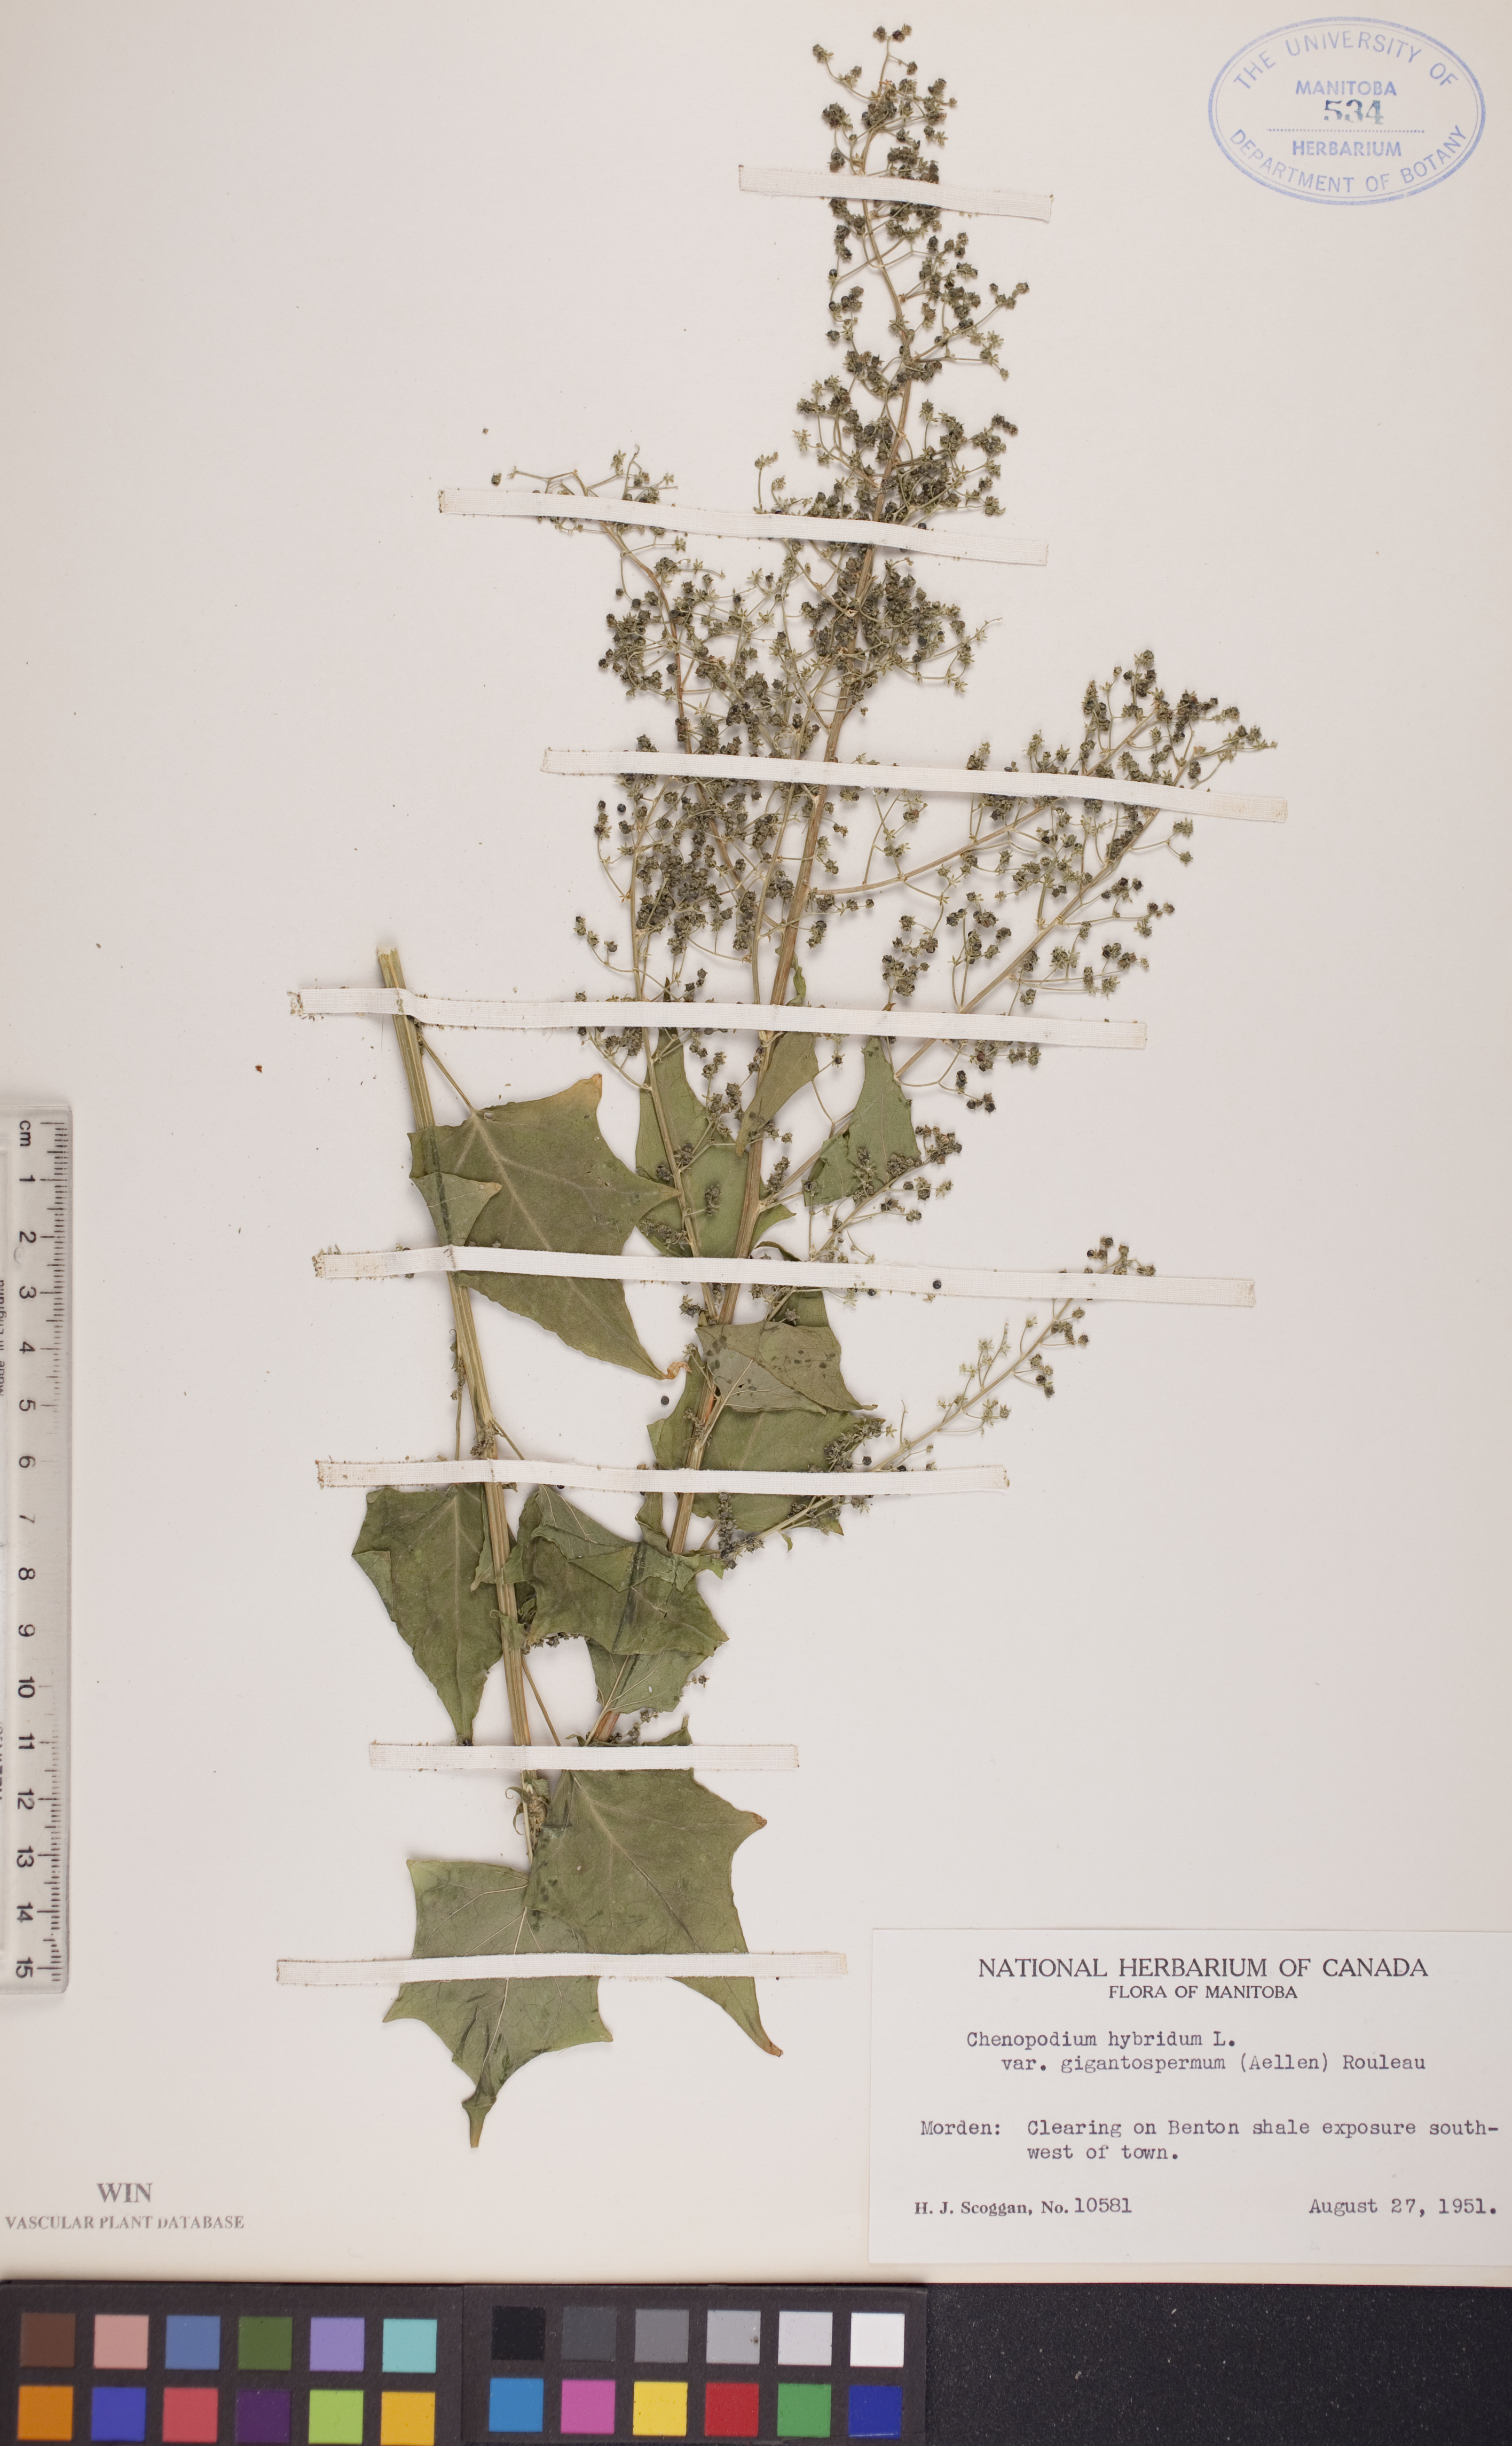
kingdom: Plantae
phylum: Tracheophyta
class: Magnoliopsida
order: Caryophyllales
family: Amaranthaceae
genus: Chenopodiastrum
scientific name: Chenopodiastrum simplex
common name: Large-seed goosefoot
